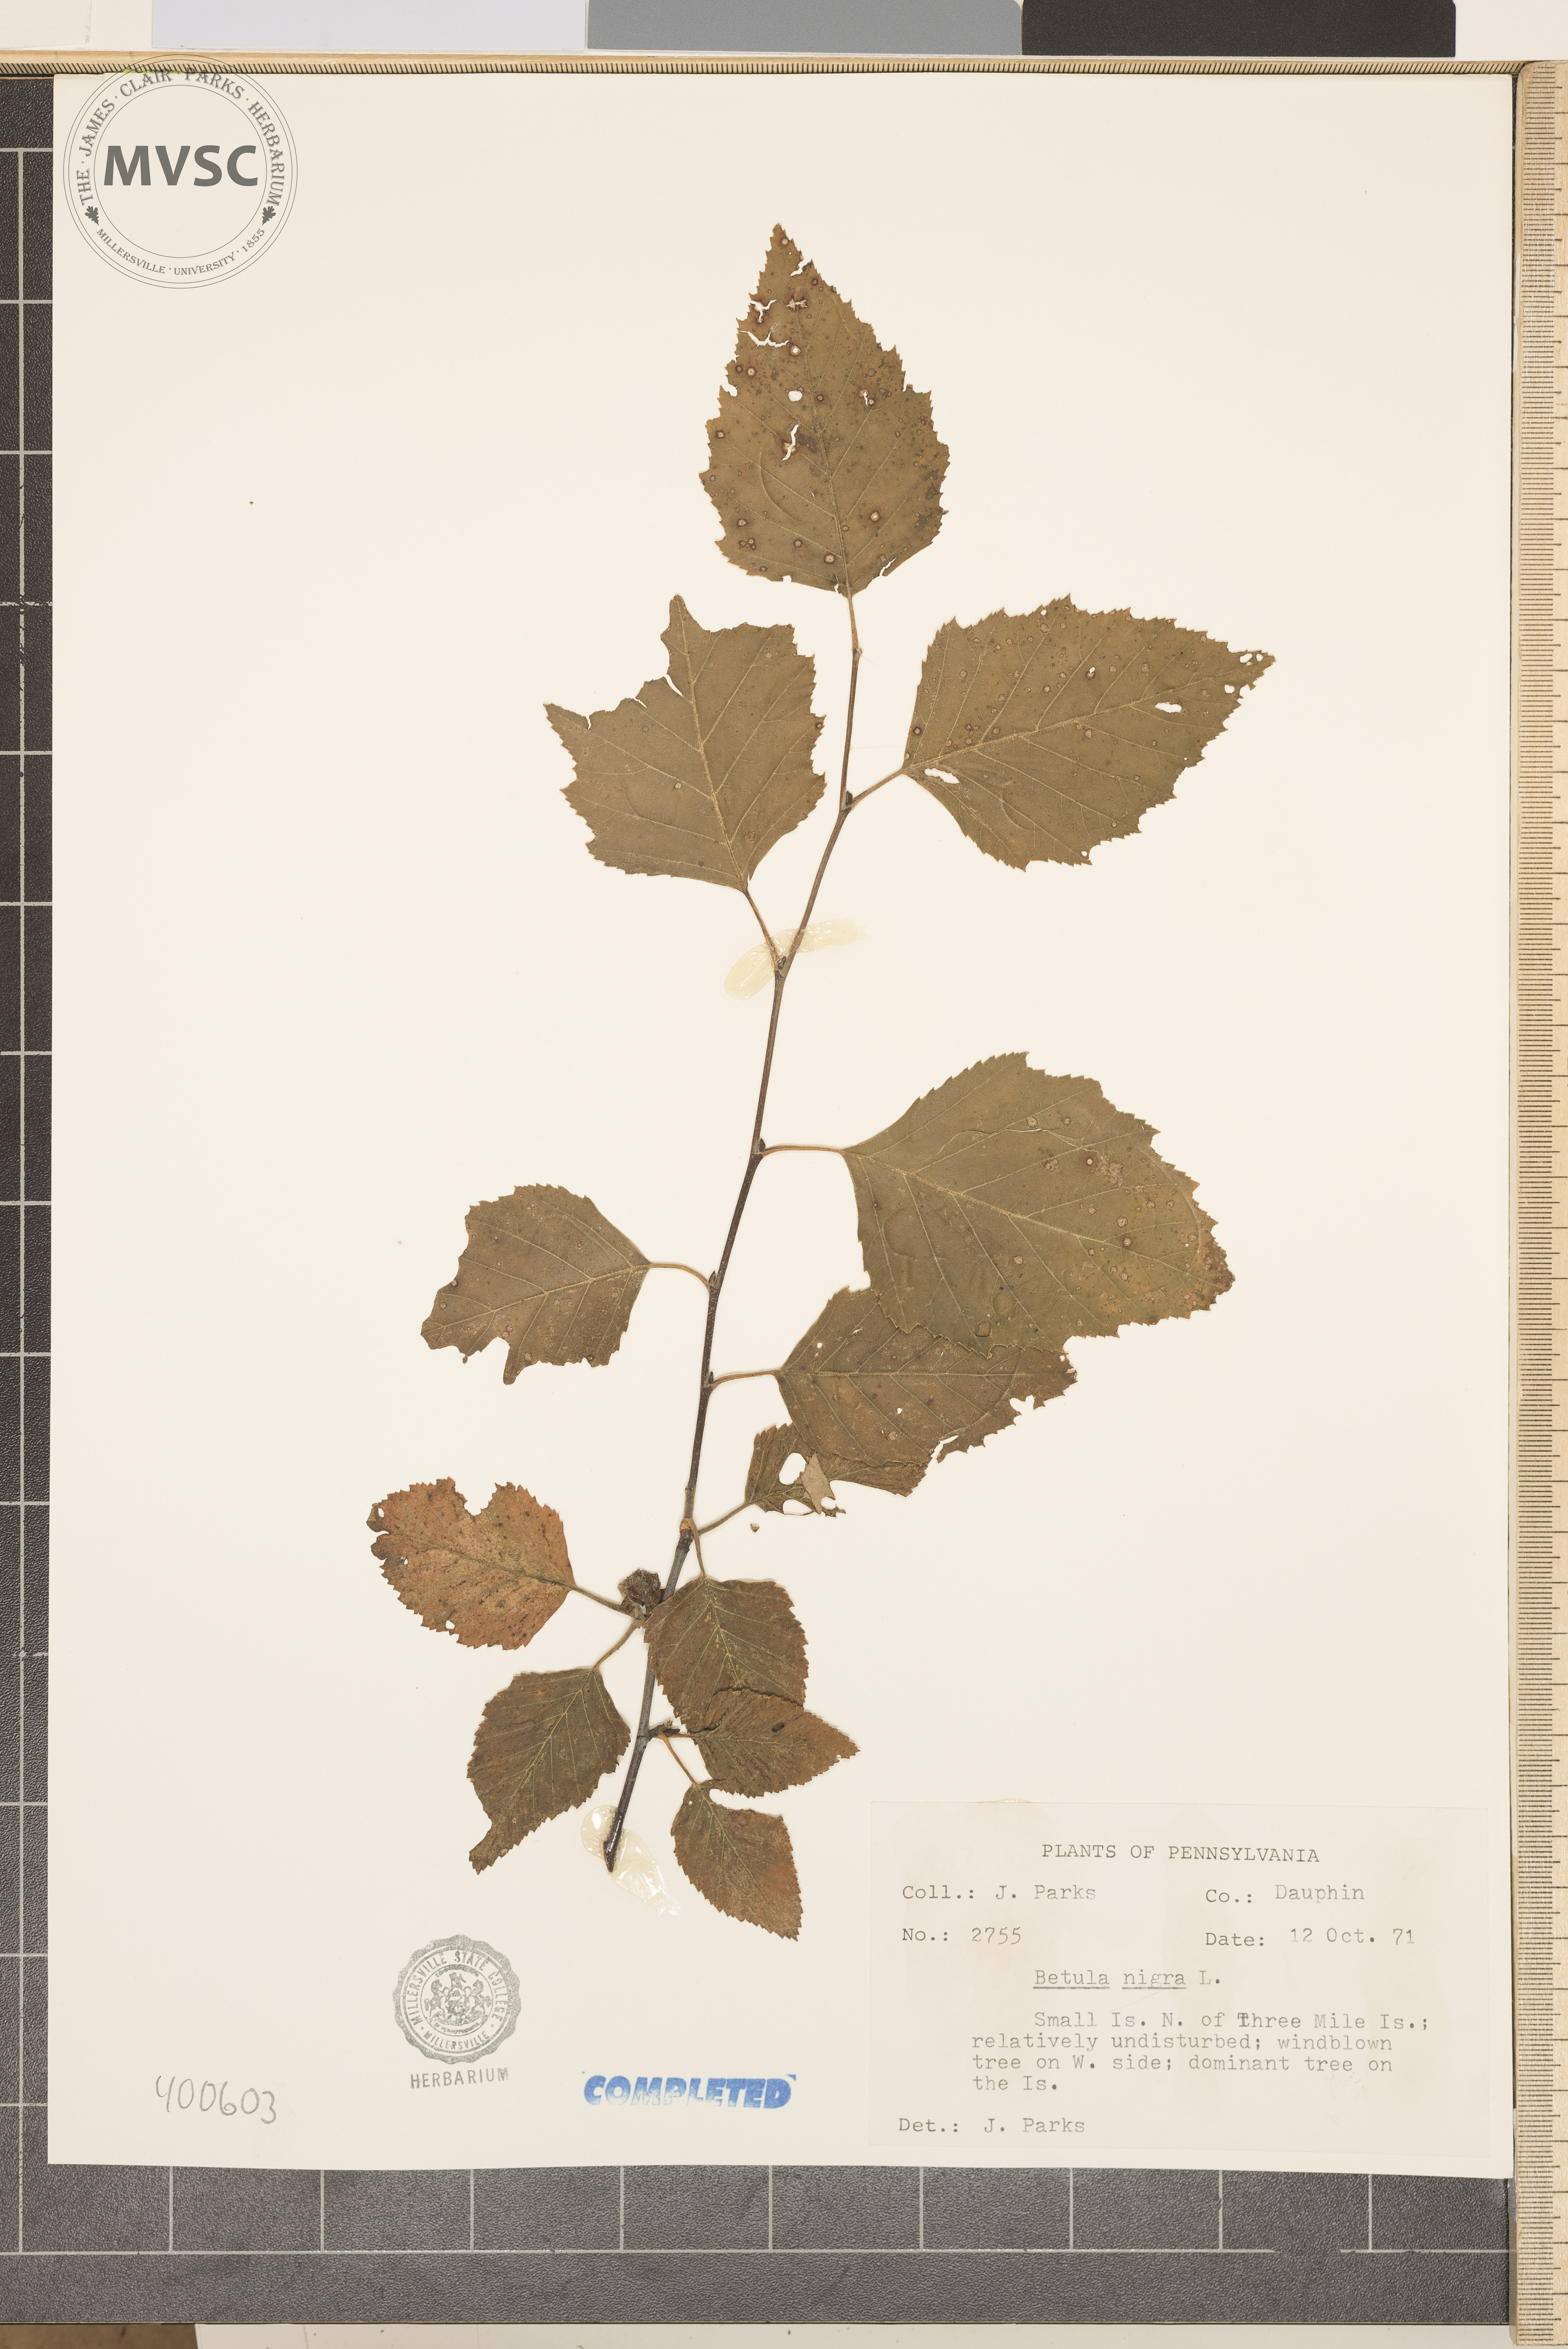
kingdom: Plantae
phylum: Tracheophyta
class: Magnoliopsida
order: Fagales
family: Betulaceae
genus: Betula
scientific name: Betula nigra
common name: river birch
